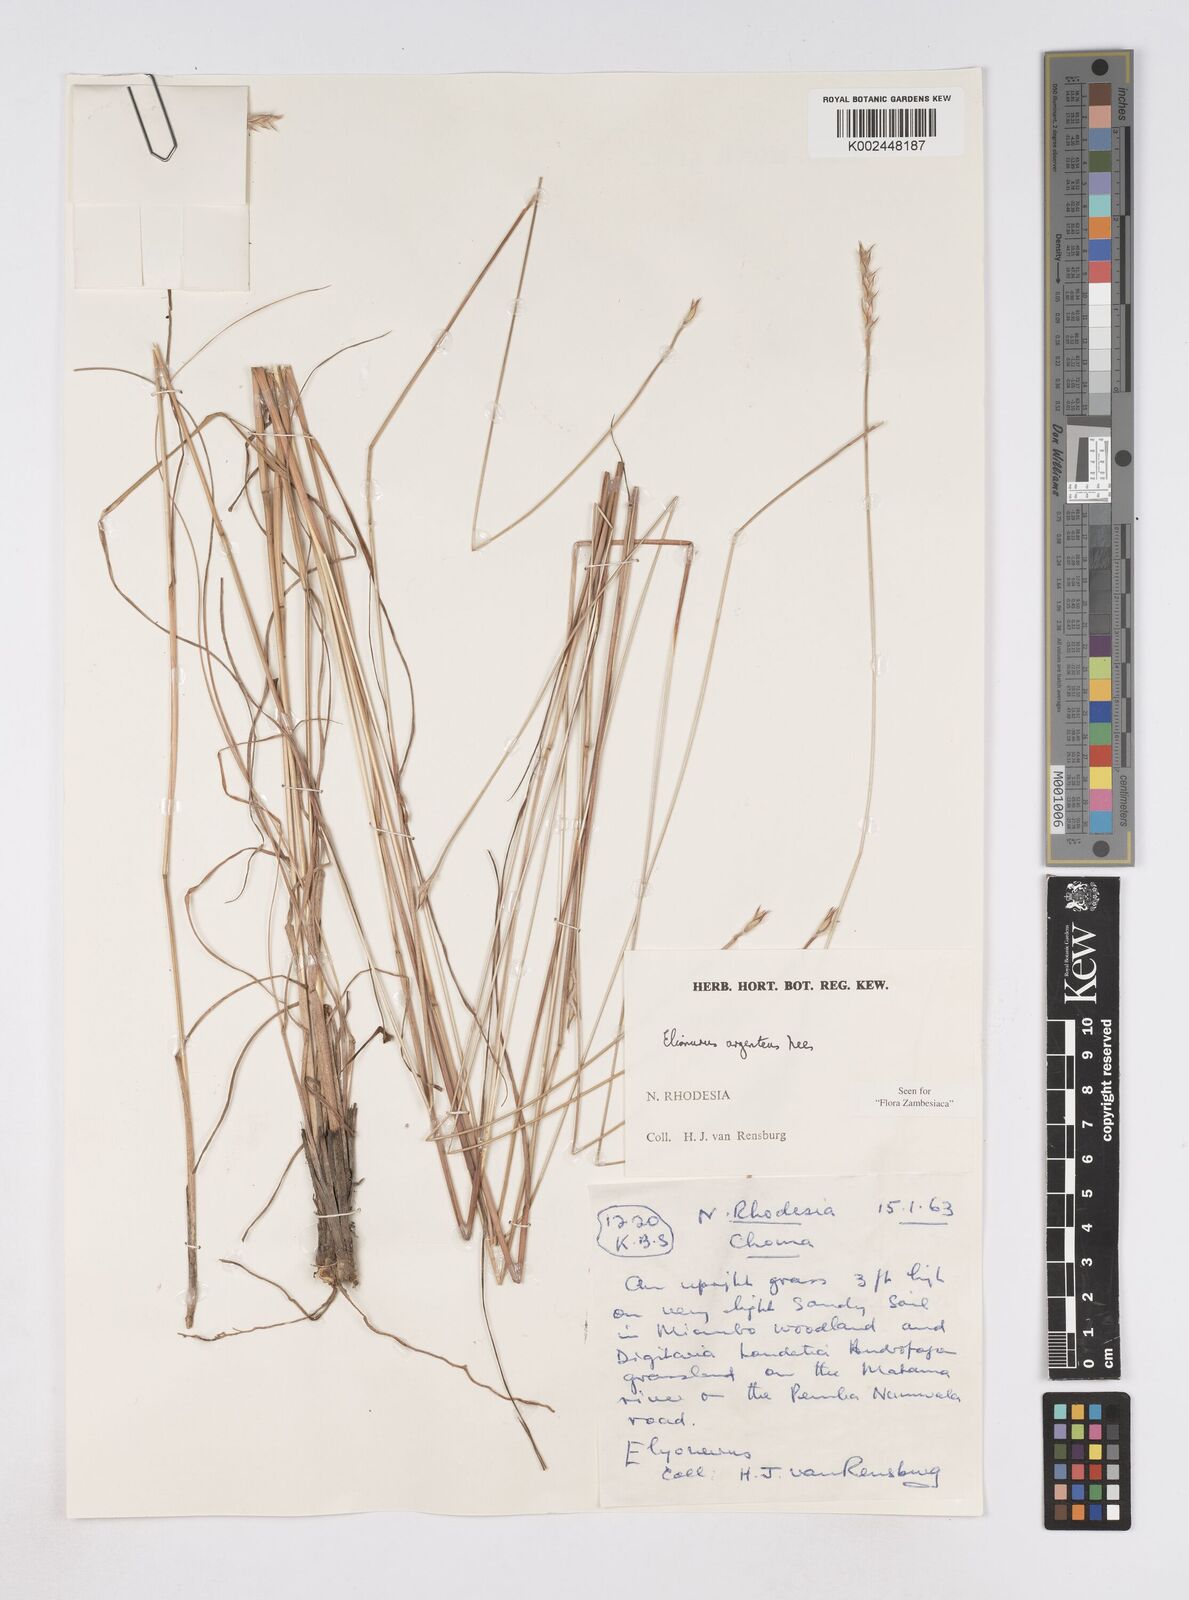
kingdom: Plantae
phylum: Tracheophyta
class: Liliopsida
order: Poales
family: Poaceae
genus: Elionurus
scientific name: Elionurus muticus
